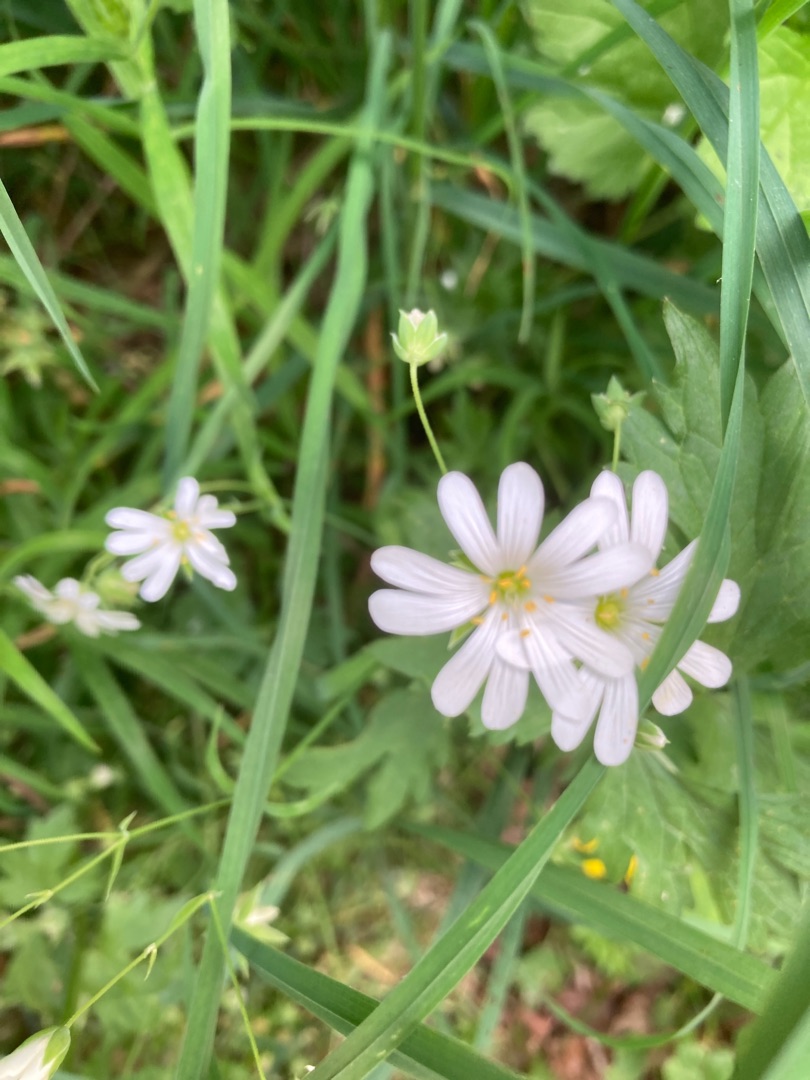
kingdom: Plantae
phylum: Tracheophyta
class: Magnoliopsida
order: Caryophyllales
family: Caryophyllaceae
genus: Rabelera
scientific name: Rabelera holostea
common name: Stor fladstjerne
